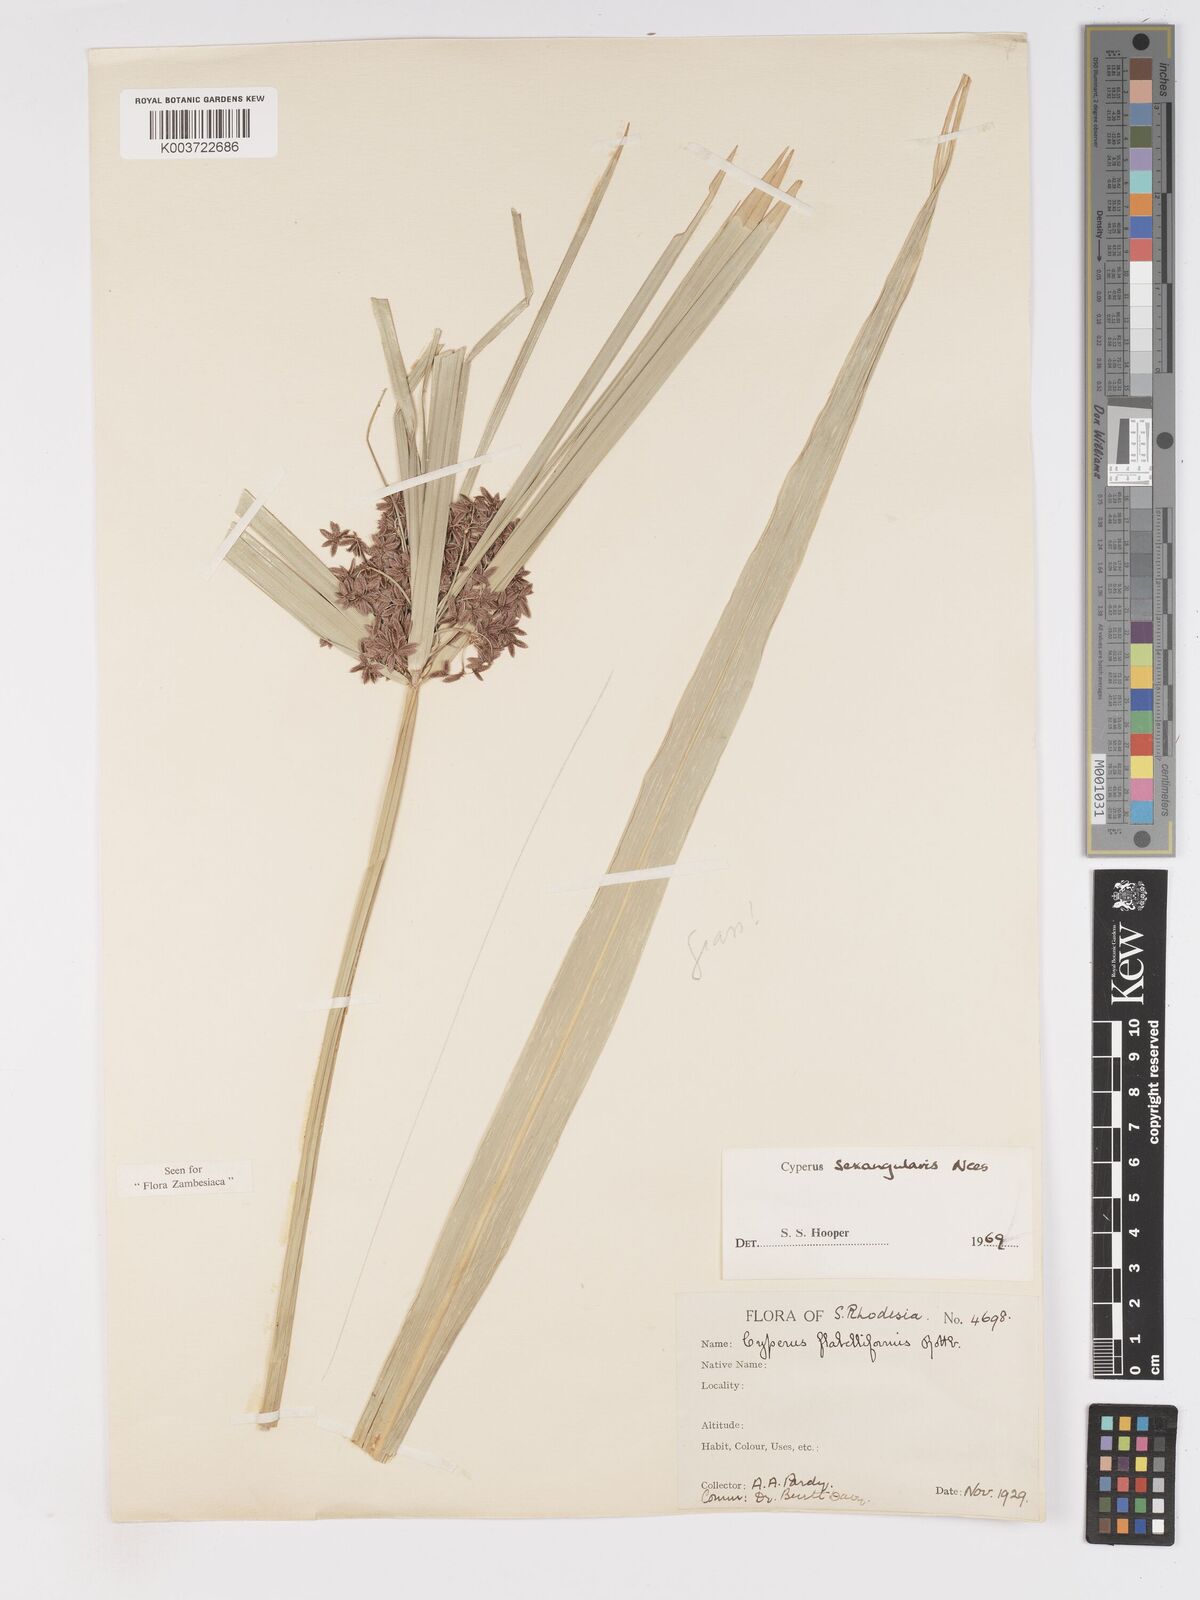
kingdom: Plantae
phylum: Tracheophyta
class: Liliopsida
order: Poales
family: Cyperaceae
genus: Cyperus
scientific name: Cyperus sexangularis
